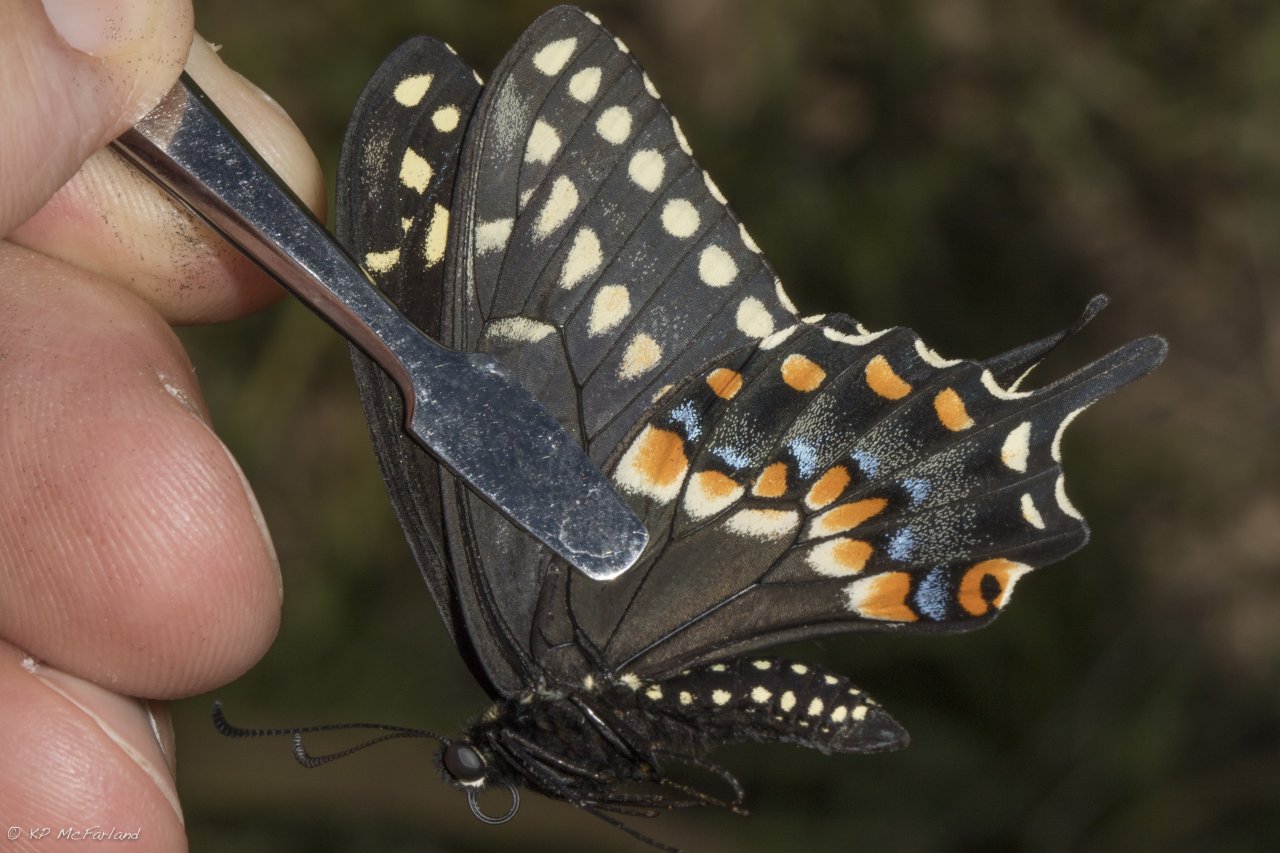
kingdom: Animalia
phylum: Arthropoda
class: Insecta
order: Lepidoptera
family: Papilionidae
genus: Papilio
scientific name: Papilio polyxenes
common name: Black Swallowtail
